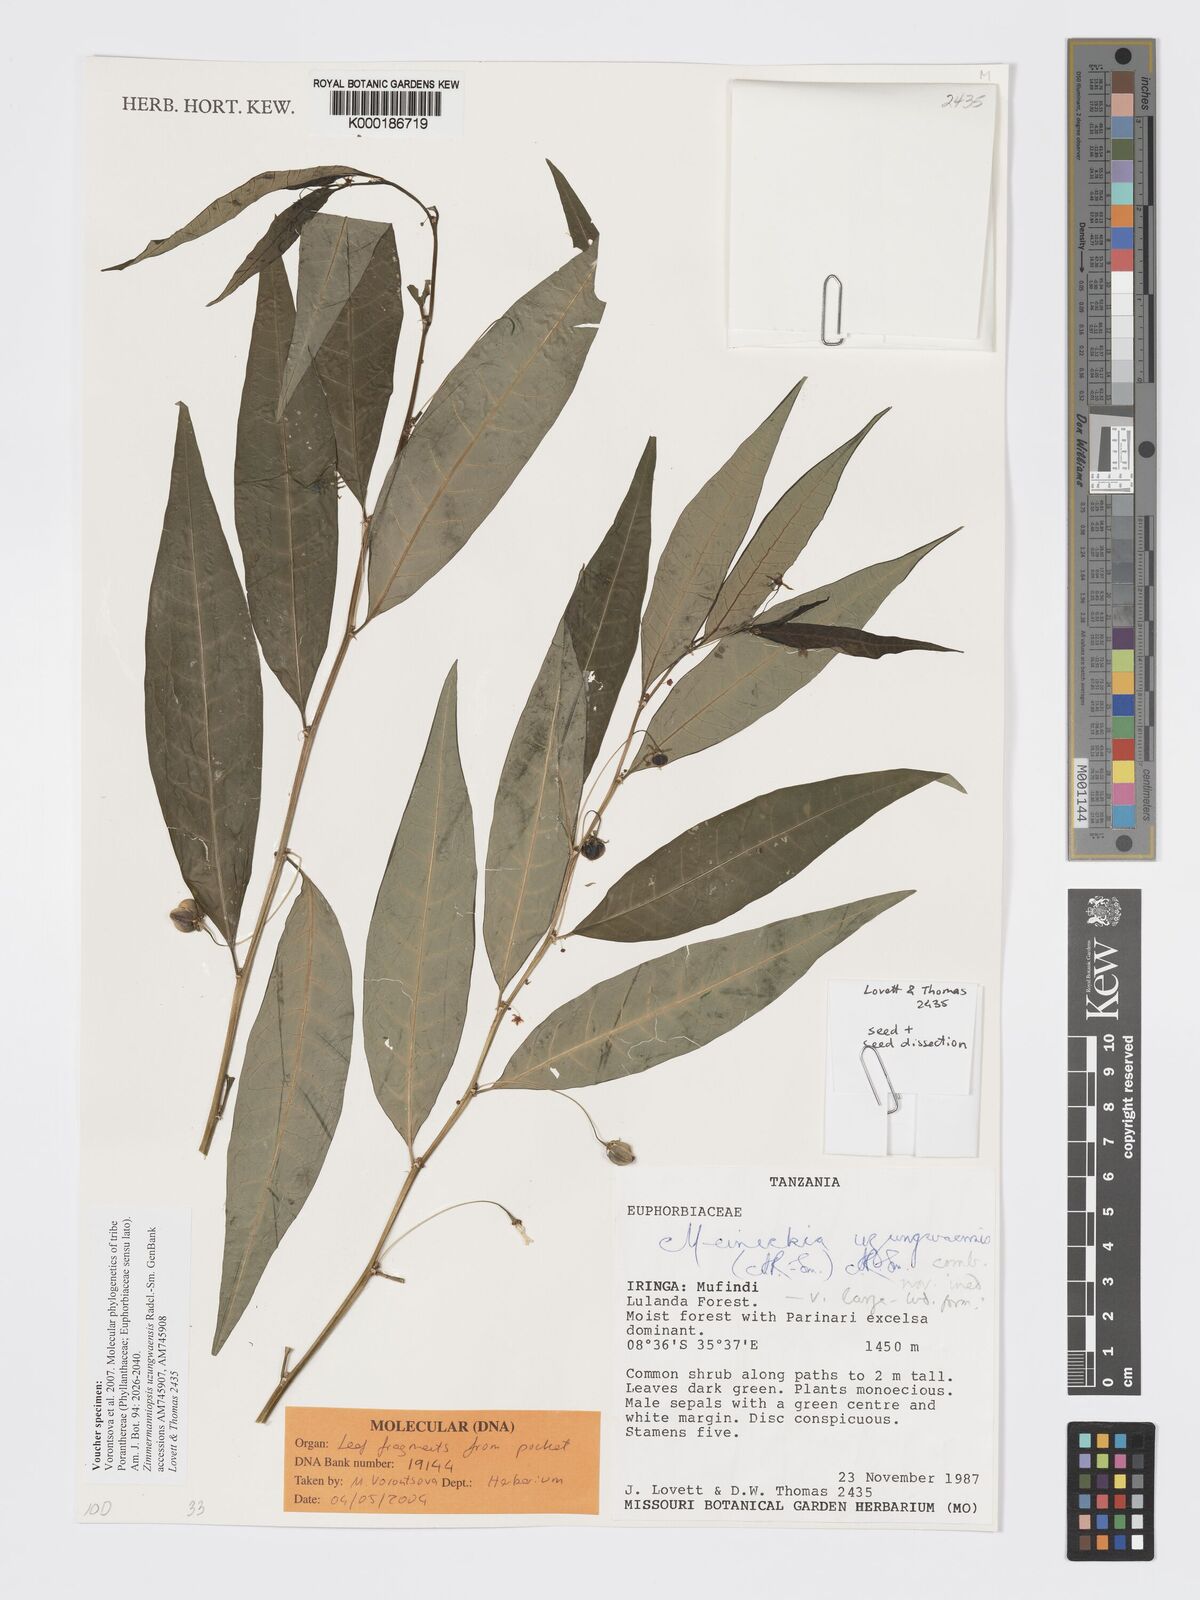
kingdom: Plantae
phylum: Tracheophyta
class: Magnoliopsida
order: Malpighiales
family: Phyllanthaceae
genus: Meineckia
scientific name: Meineckia uzungwaensis
